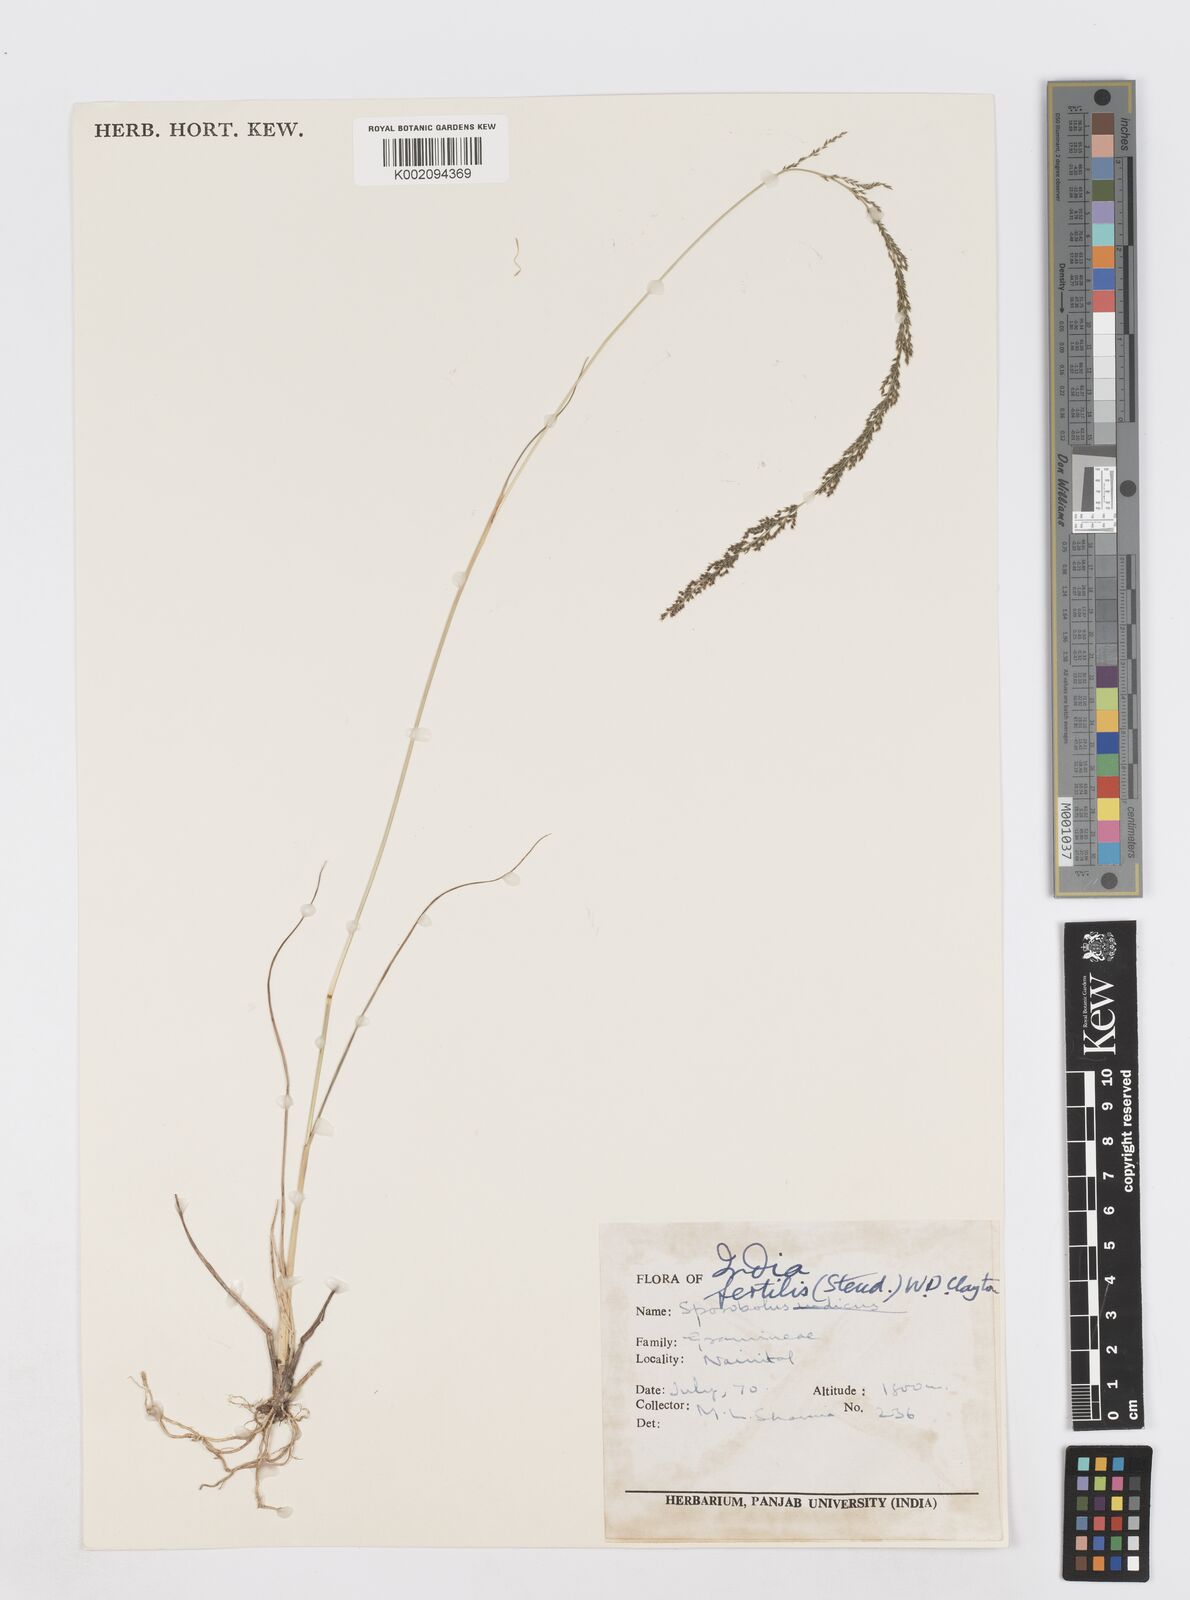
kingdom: Plantae
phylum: Tracheophyta
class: Liliopsida
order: Poales
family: Poaceae
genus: Sporobolus
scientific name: Sporobolus fertilis
